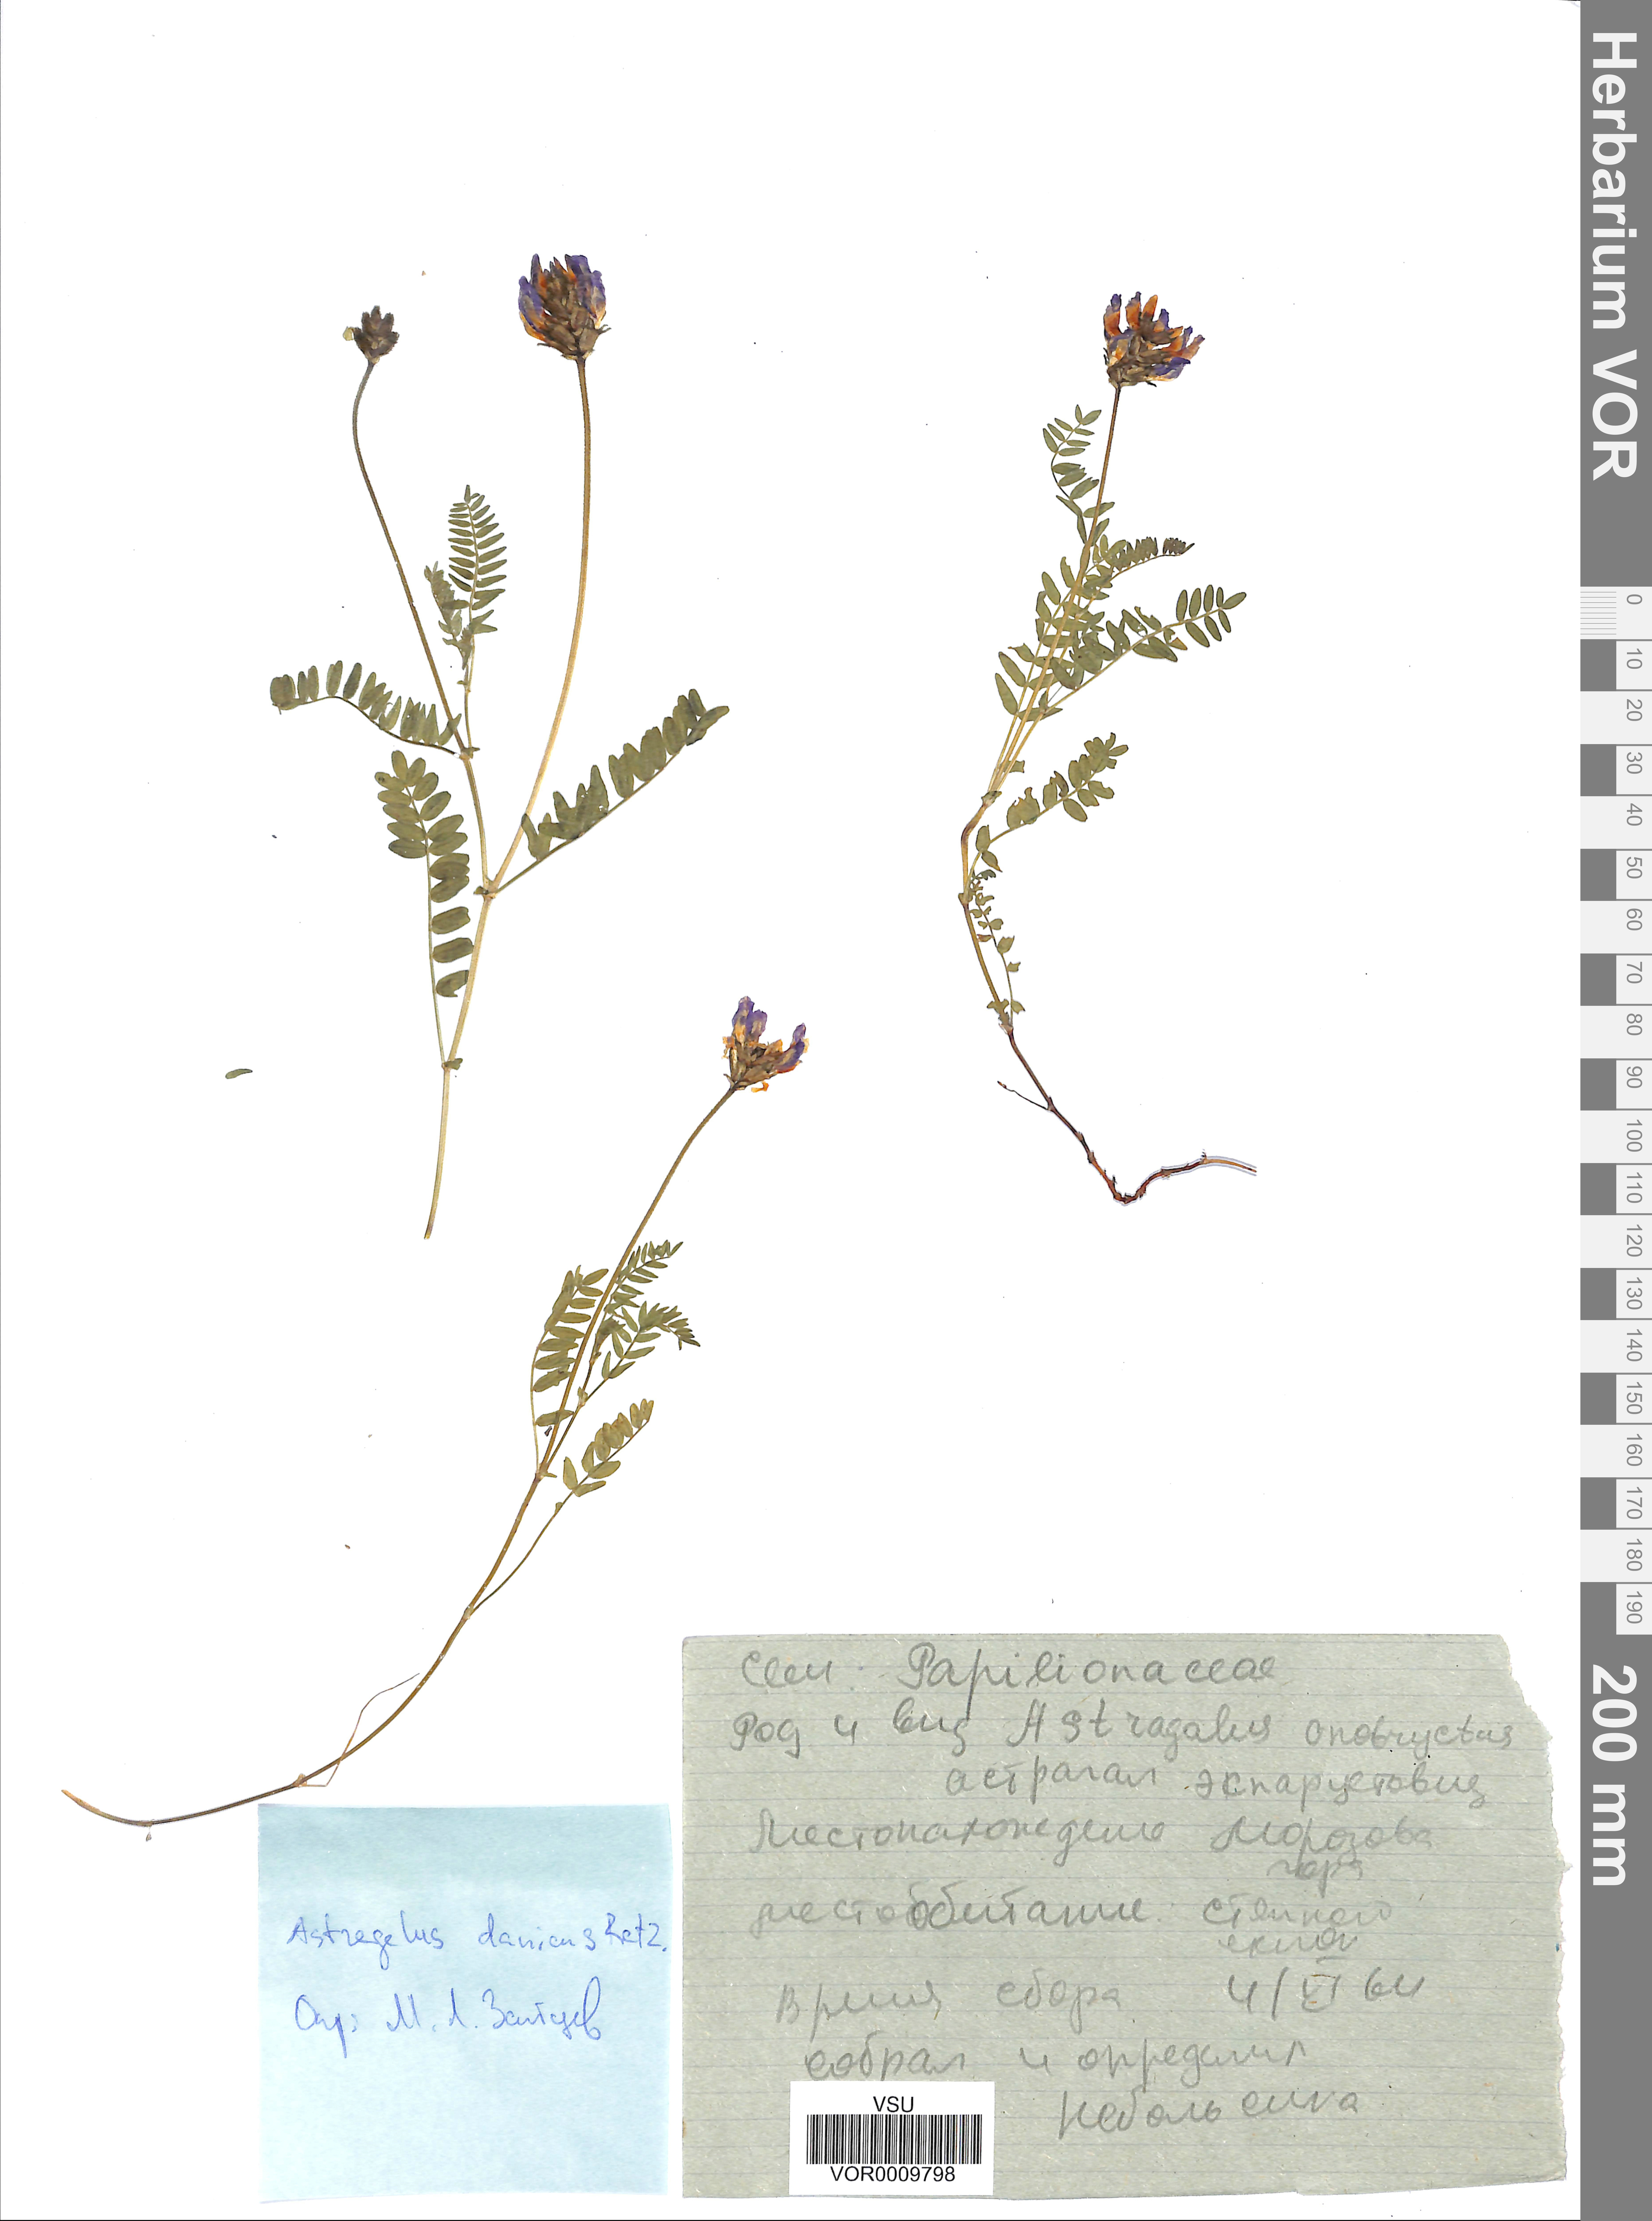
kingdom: Plantae
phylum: Tracheophyta
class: Magnoliopsida
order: Fabales
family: Fabaceae
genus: Astragalus
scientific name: Astragalus danicus
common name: Purple milk-vetch
